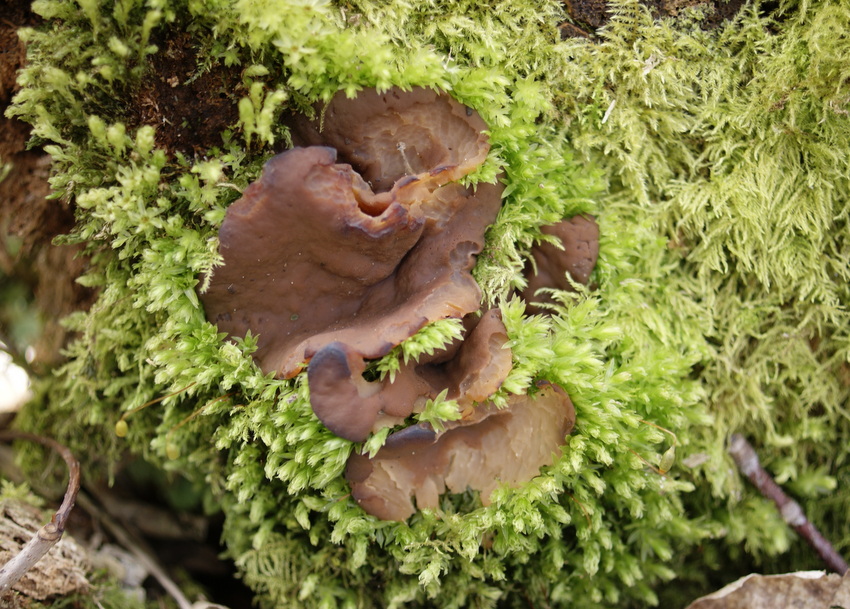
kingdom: Fungi
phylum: Ascomycota
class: Pezizomycetes
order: Pezizales
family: Discinaceae
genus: Discina
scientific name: Discina ancilis
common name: udbredt stenmorkel
